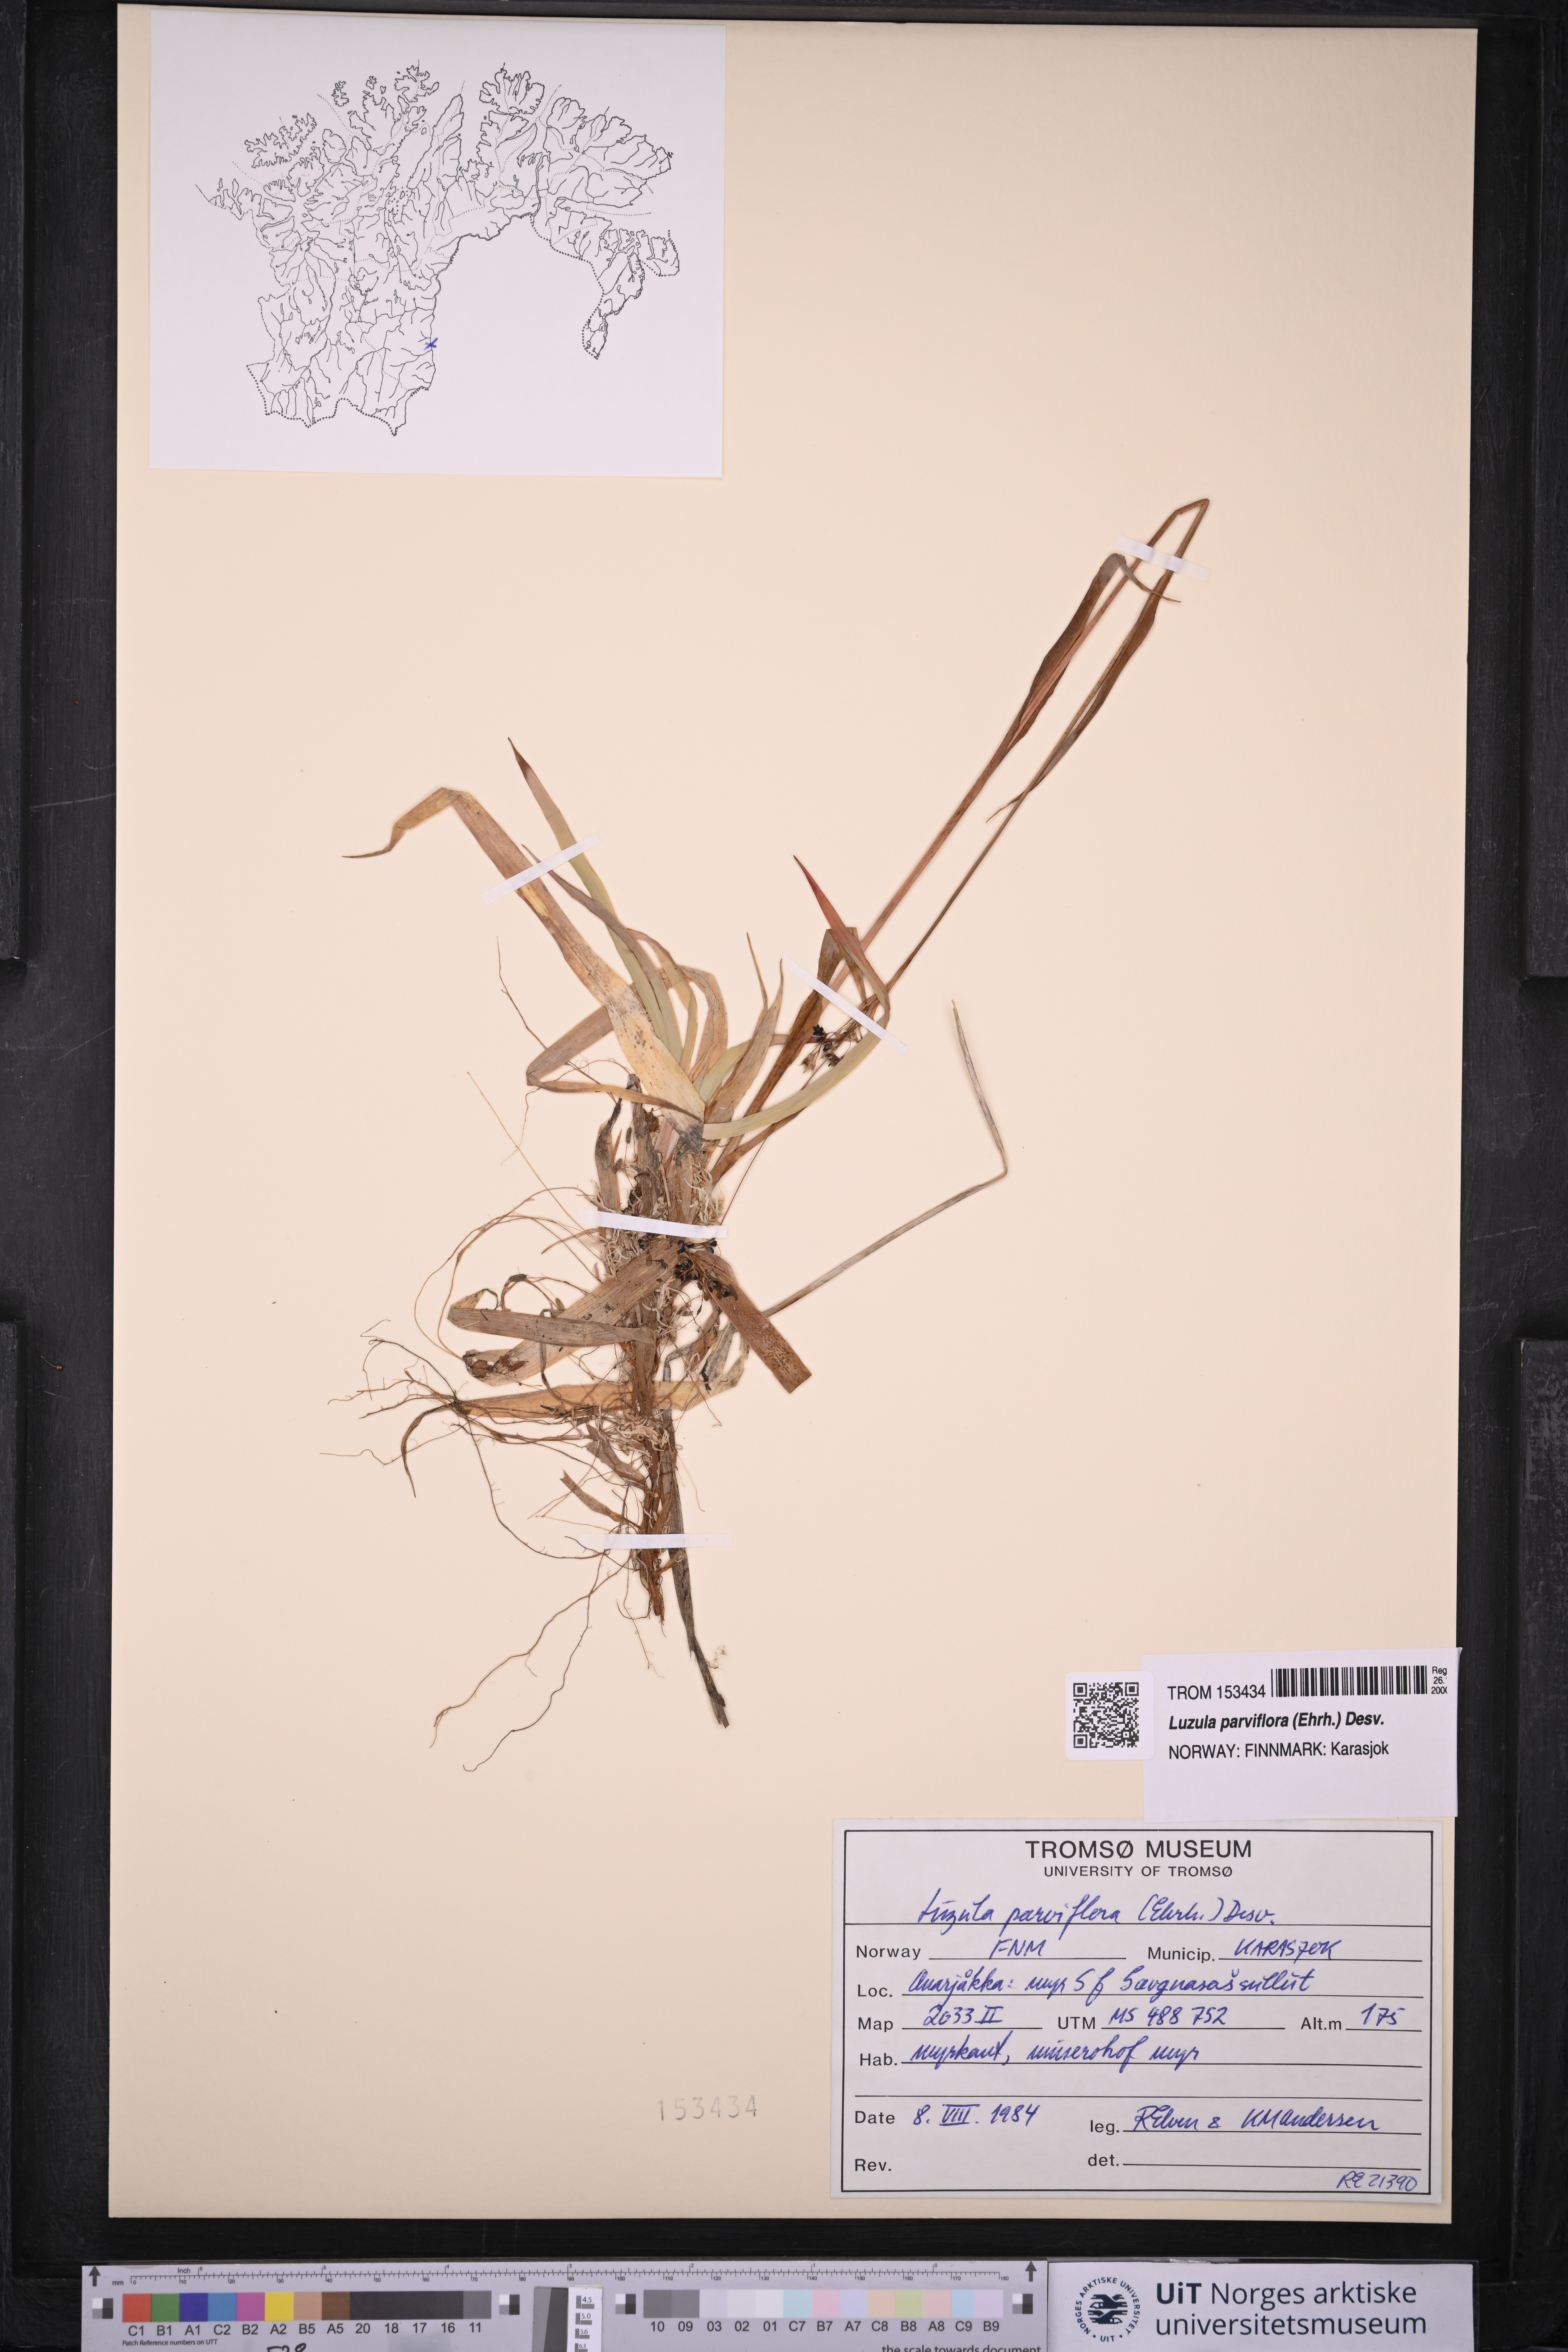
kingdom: Plantae
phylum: Tracheophyta
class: Liliopsida
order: Poales
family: Juncaceae
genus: Luzula
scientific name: Luzula parviflora
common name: Millet woodrush
